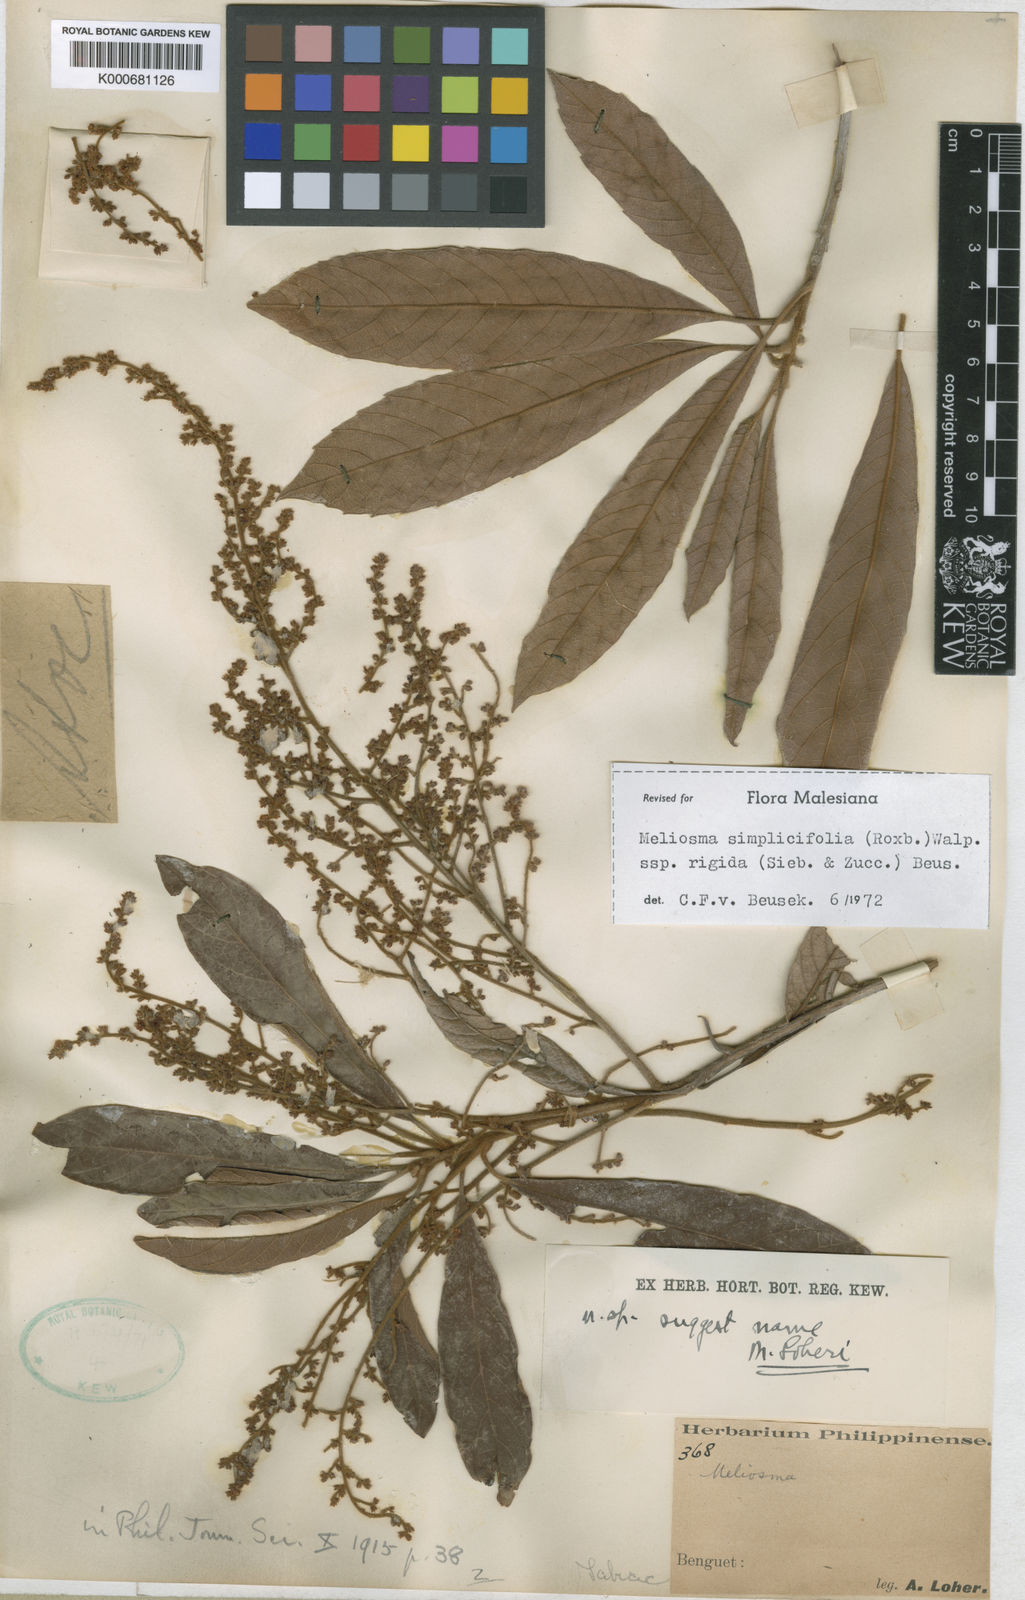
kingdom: Plantae
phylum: Tracheophyta
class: Magnoliopsida
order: Proteales
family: Sabiaceae
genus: Meliosma
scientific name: Meliosma rigida
